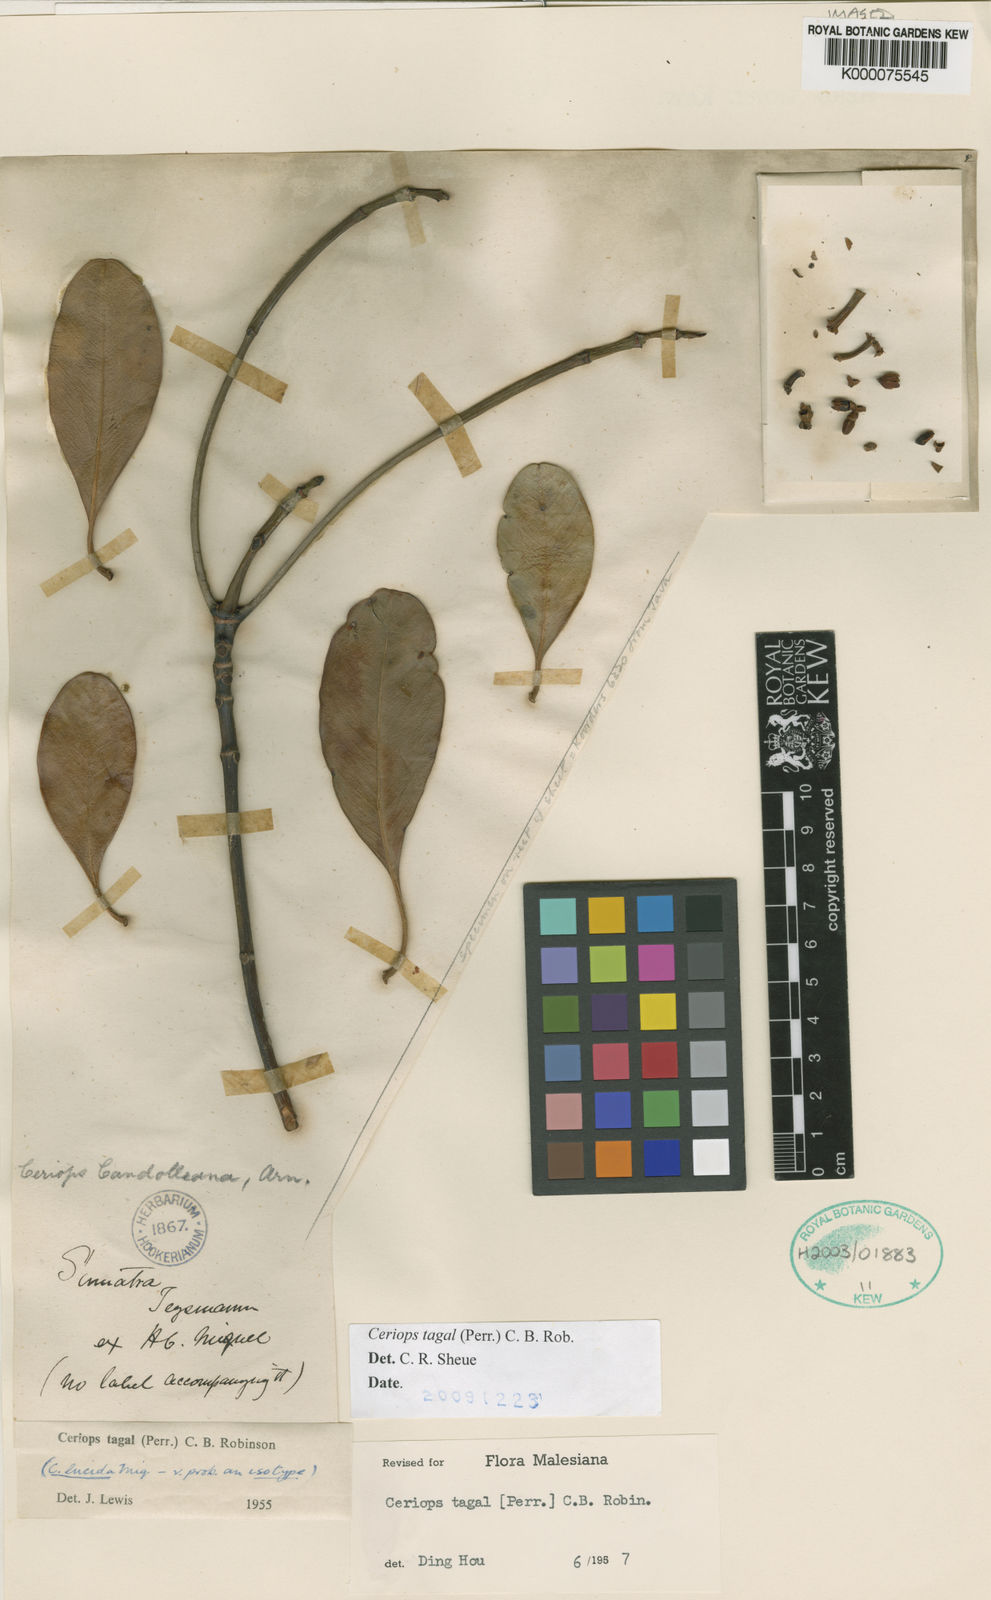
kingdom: Plantae
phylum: Tracheophyta
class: Magnoliopsida
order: Malpighiales
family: Rhizophoraceae
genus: Ceriops
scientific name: Ceriops tagal
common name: Spurred mangrove
